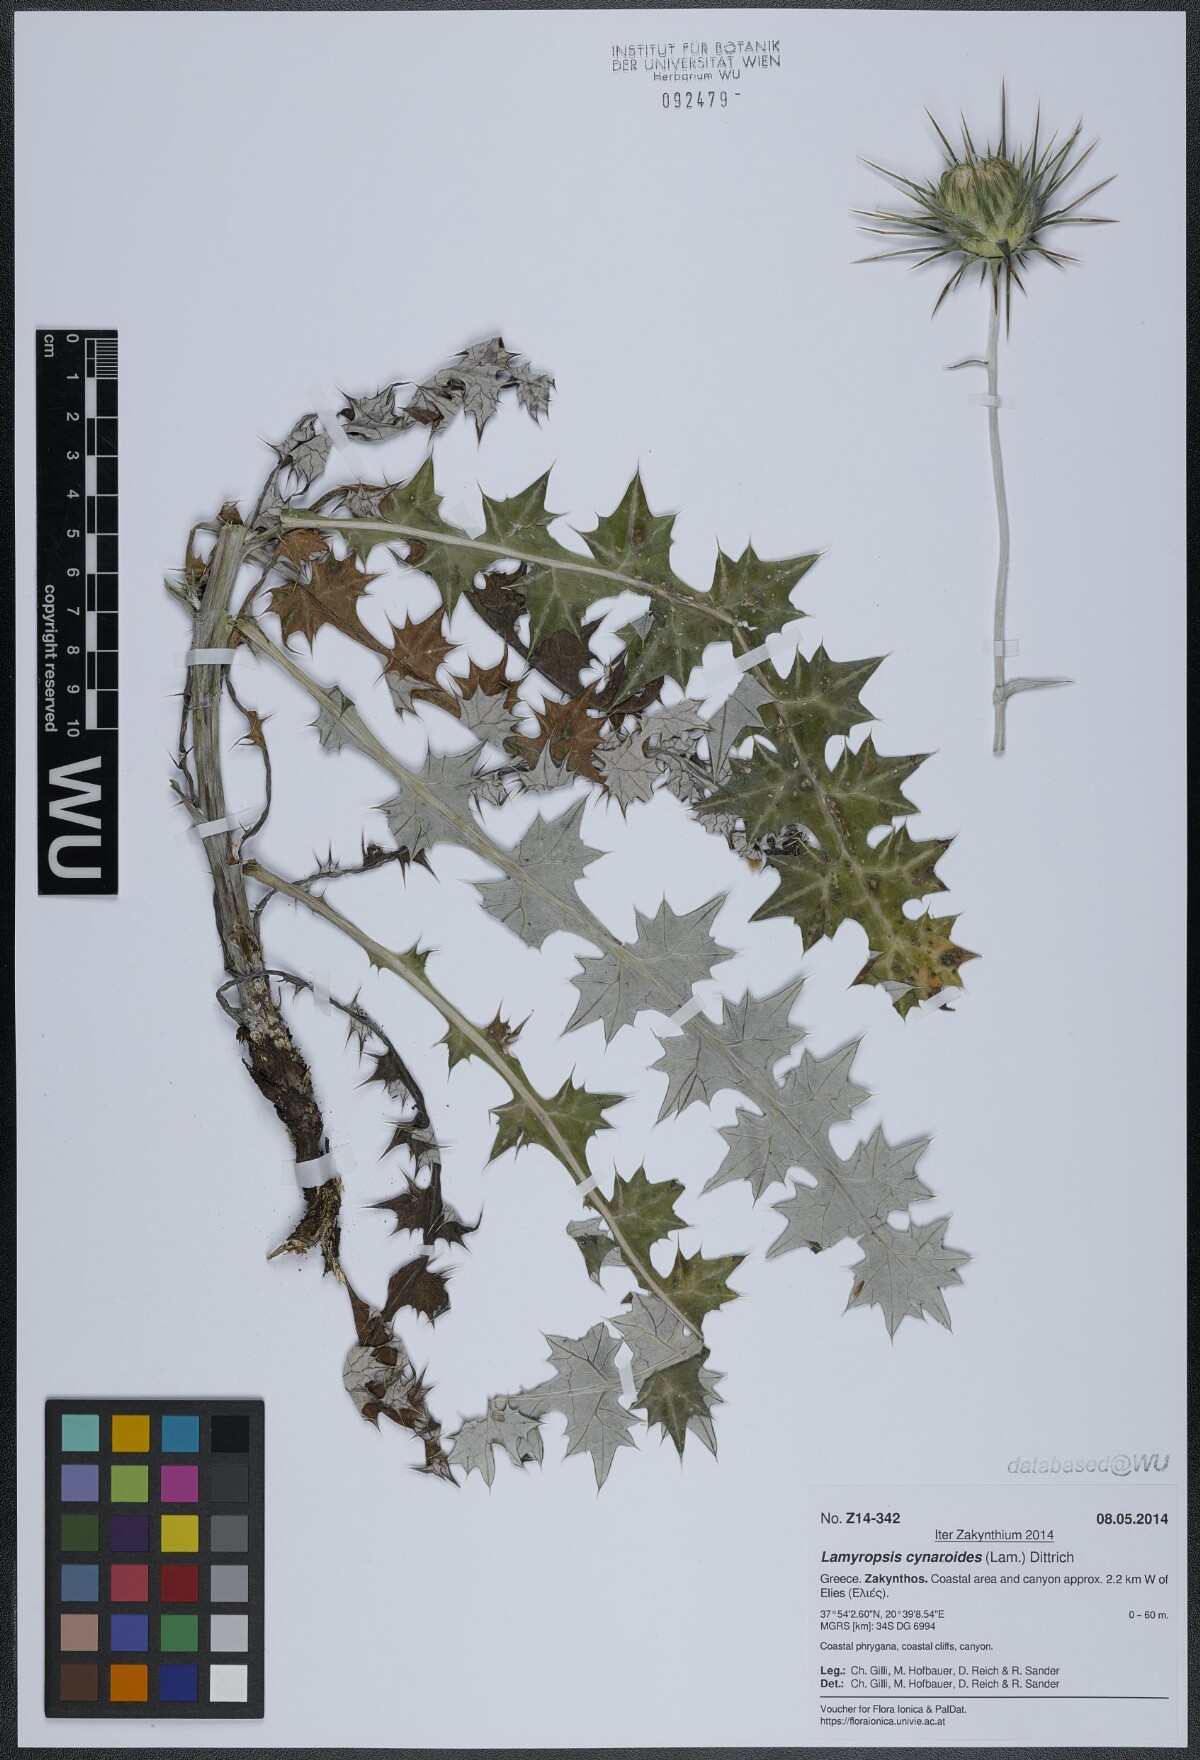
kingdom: Plantae
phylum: Tracheophyta
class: Magnoliopsida
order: Asterales
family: Asteraceae
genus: Lamyropsis
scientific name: Lamyropsis cynaroides
